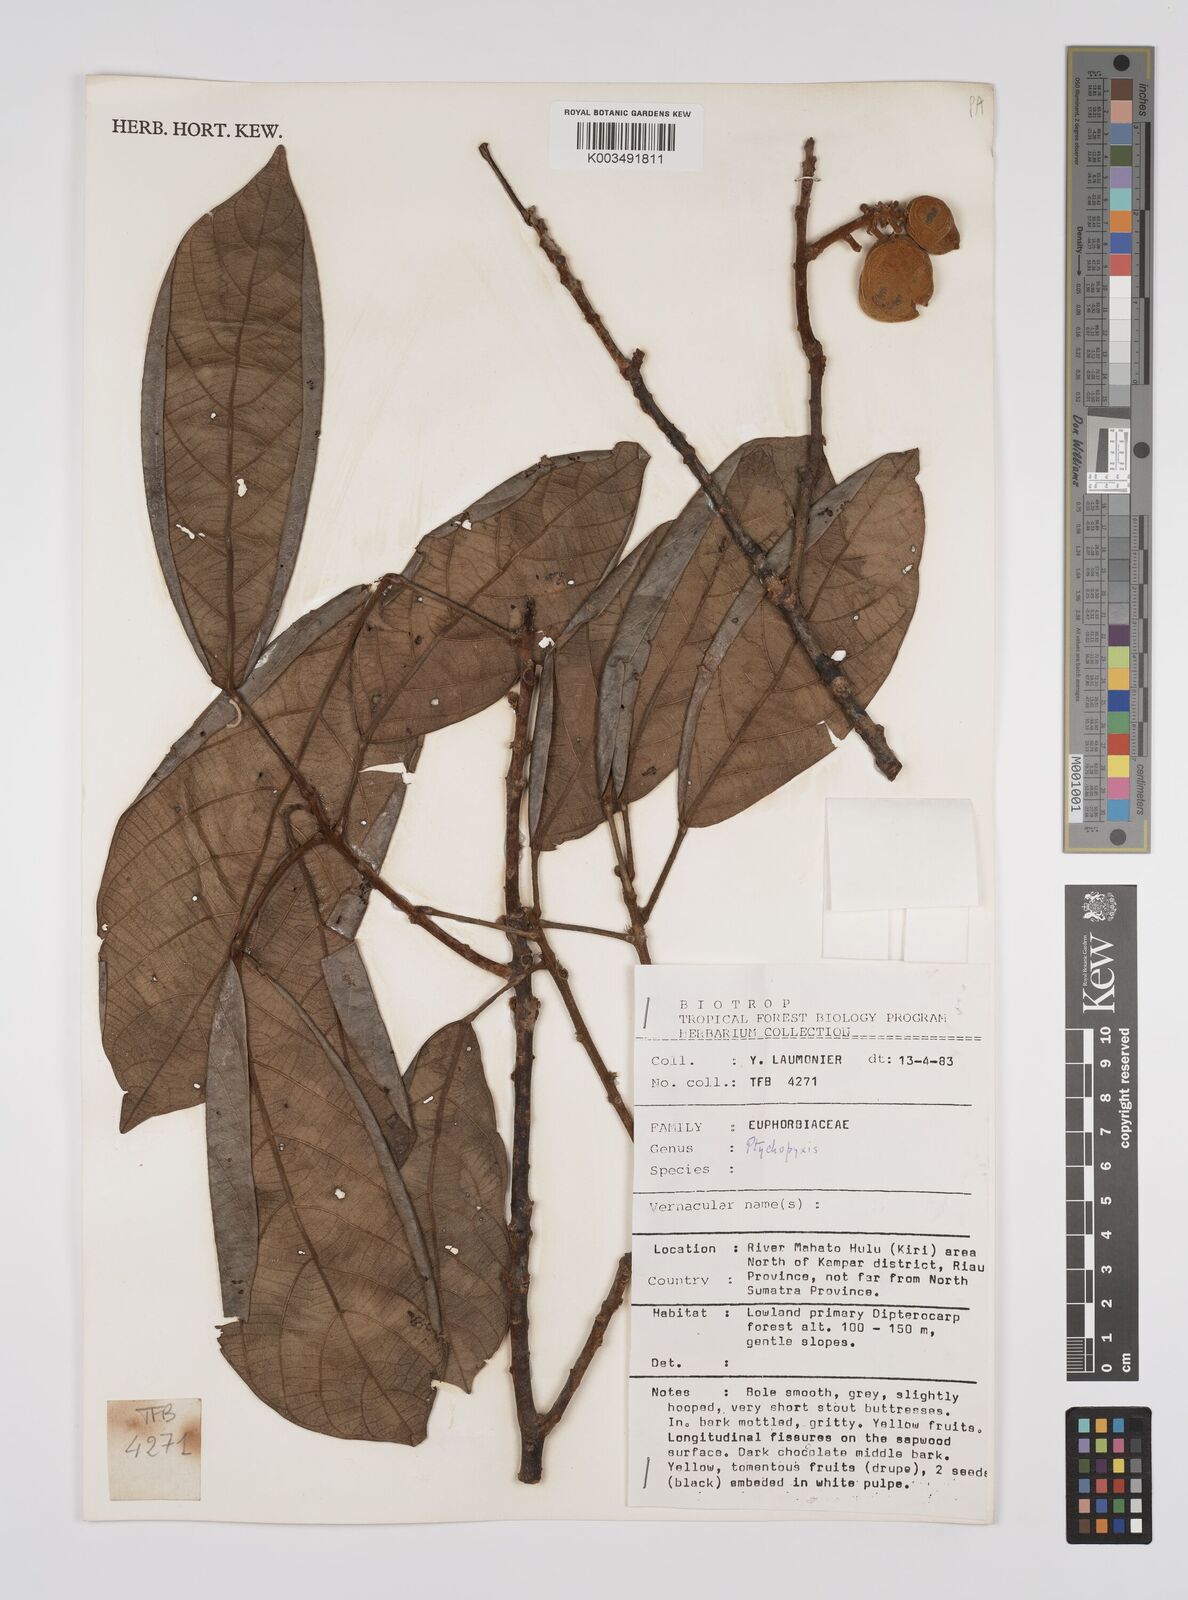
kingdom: Plantae
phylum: Tracheophyta
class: Magnoliopsida
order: Malpighiales
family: Euphorbiaceae
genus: Ptychopyxis
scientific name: Ptychopyxis
